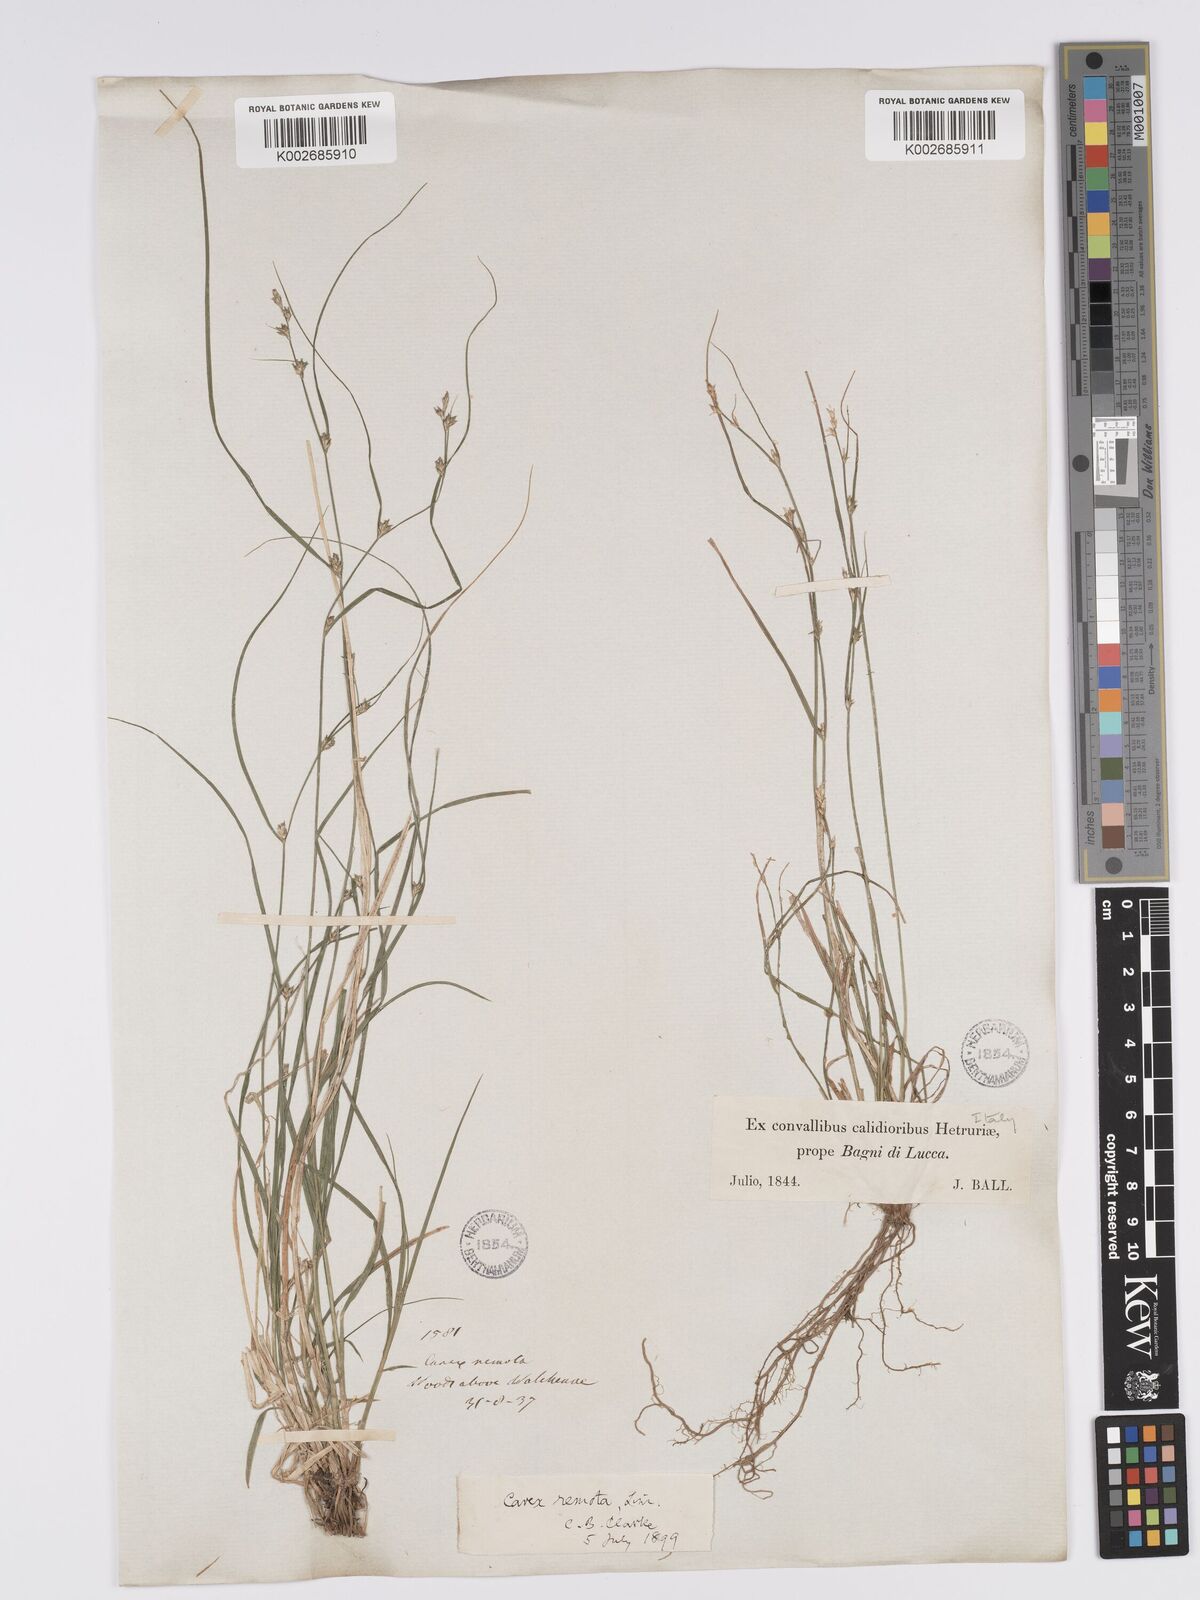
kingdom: Plantae
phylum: Tracheophyta
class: Liliopsida
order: Poales
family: Cyperaceae
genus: Carex
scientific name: Carex remota
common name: Remote sedge
